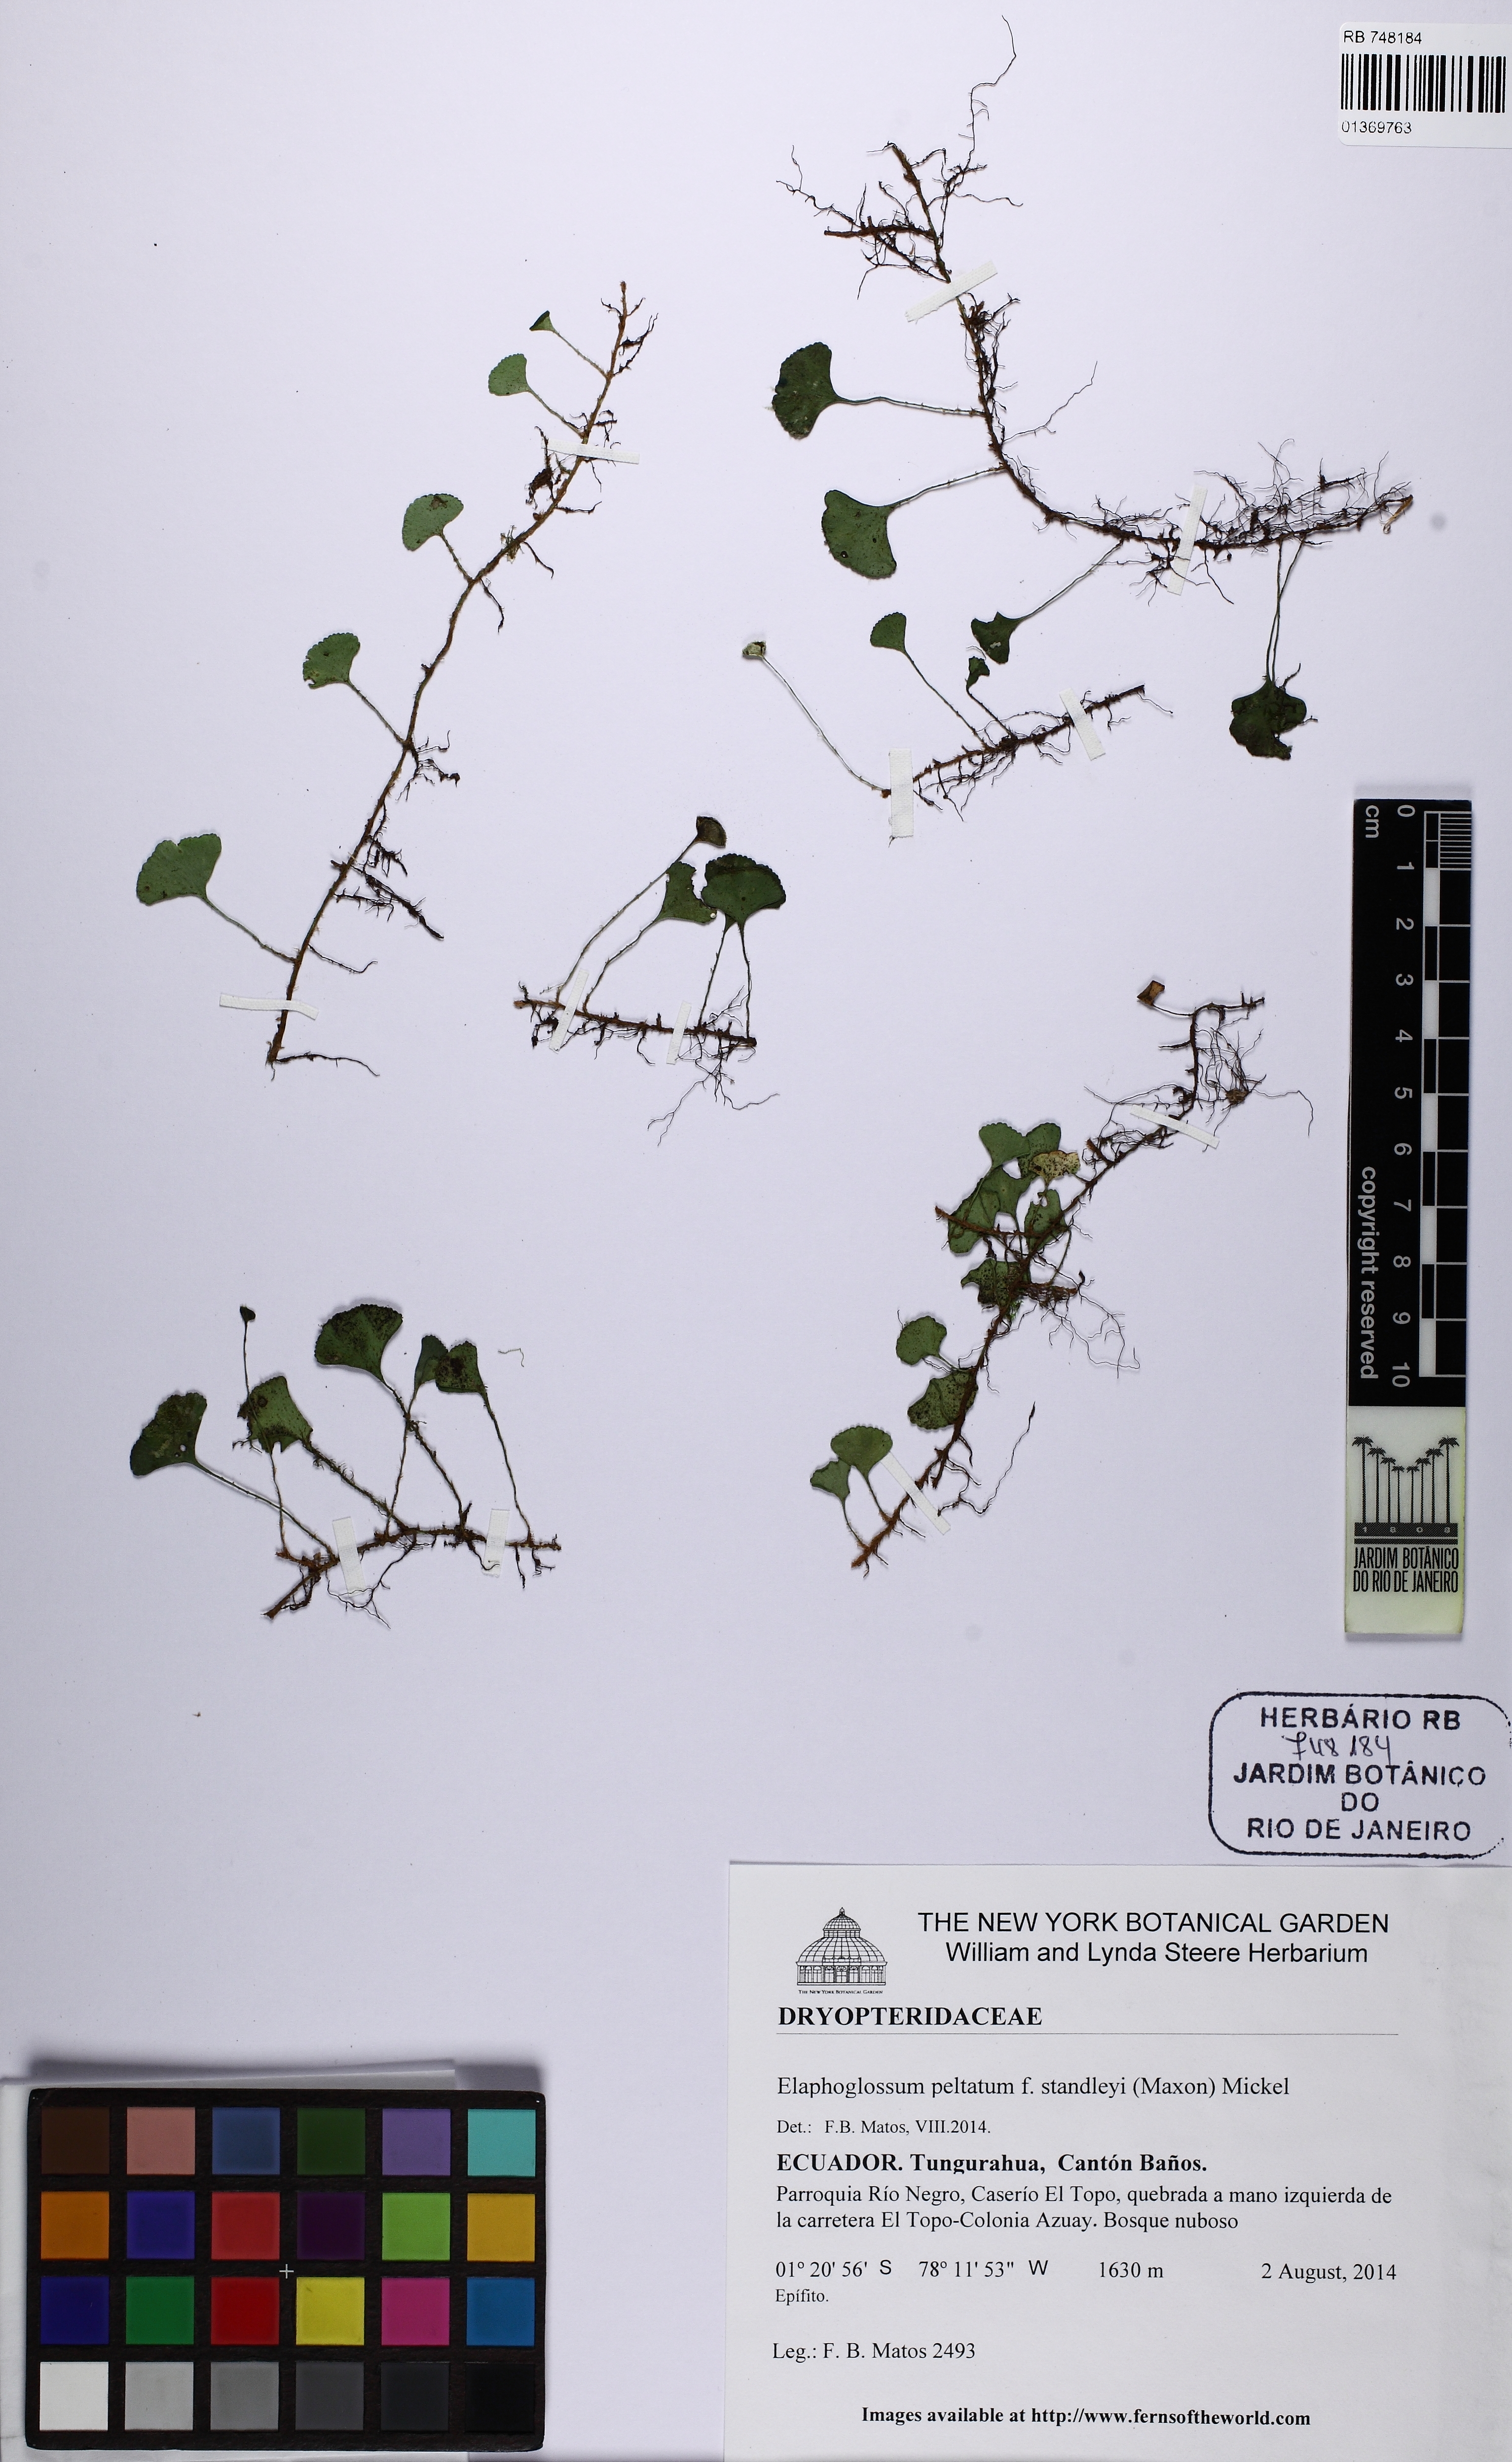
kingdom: Plantae
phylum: Tracheophyta
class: Polypodiopsida
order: Polypodiales
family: Dryopteridaceae
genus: Elaphoglossum
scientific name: Elaphoglossum peltatum
